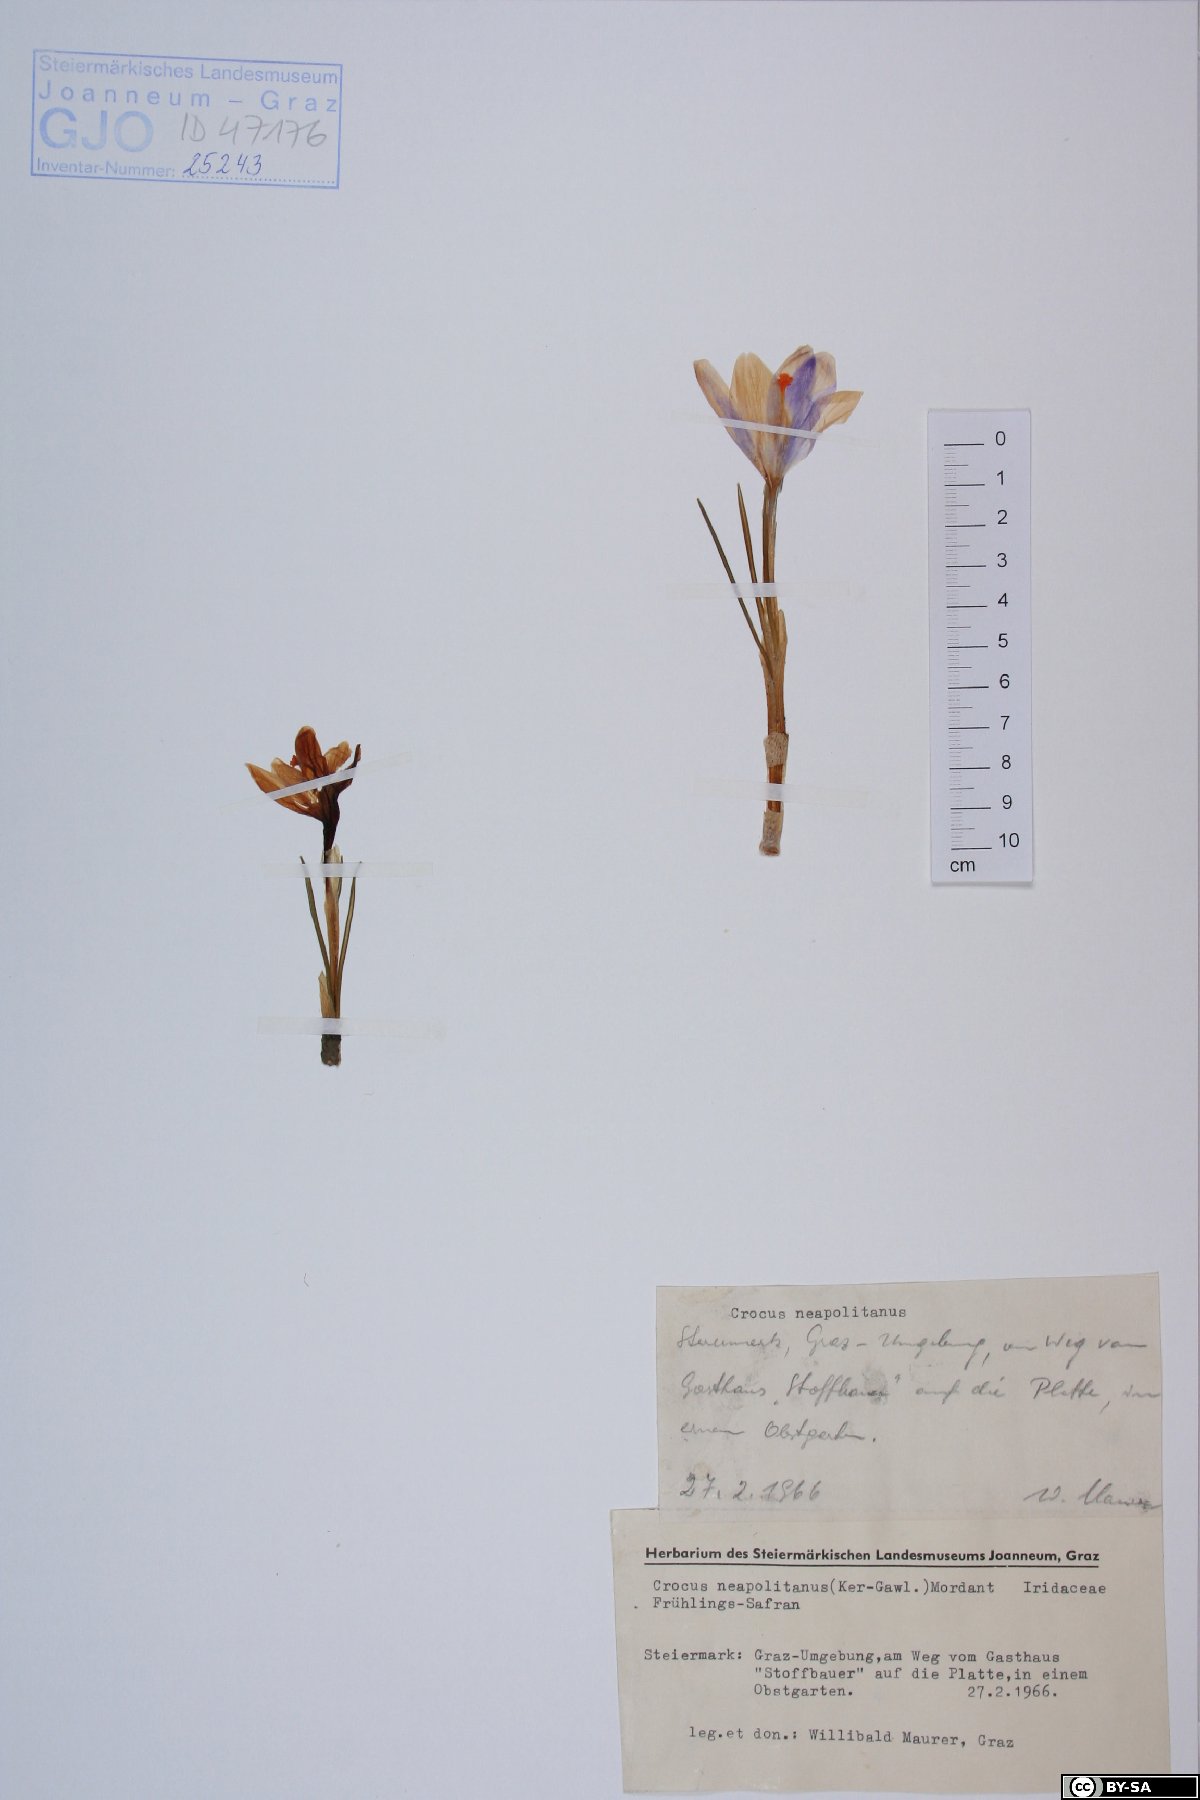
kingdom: Plantae
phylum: Tracheophyta
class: Liliopsida
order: Asparagales
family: Iridaceae
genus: Crocus
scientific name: Crocus vernus
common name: Spring crocus
